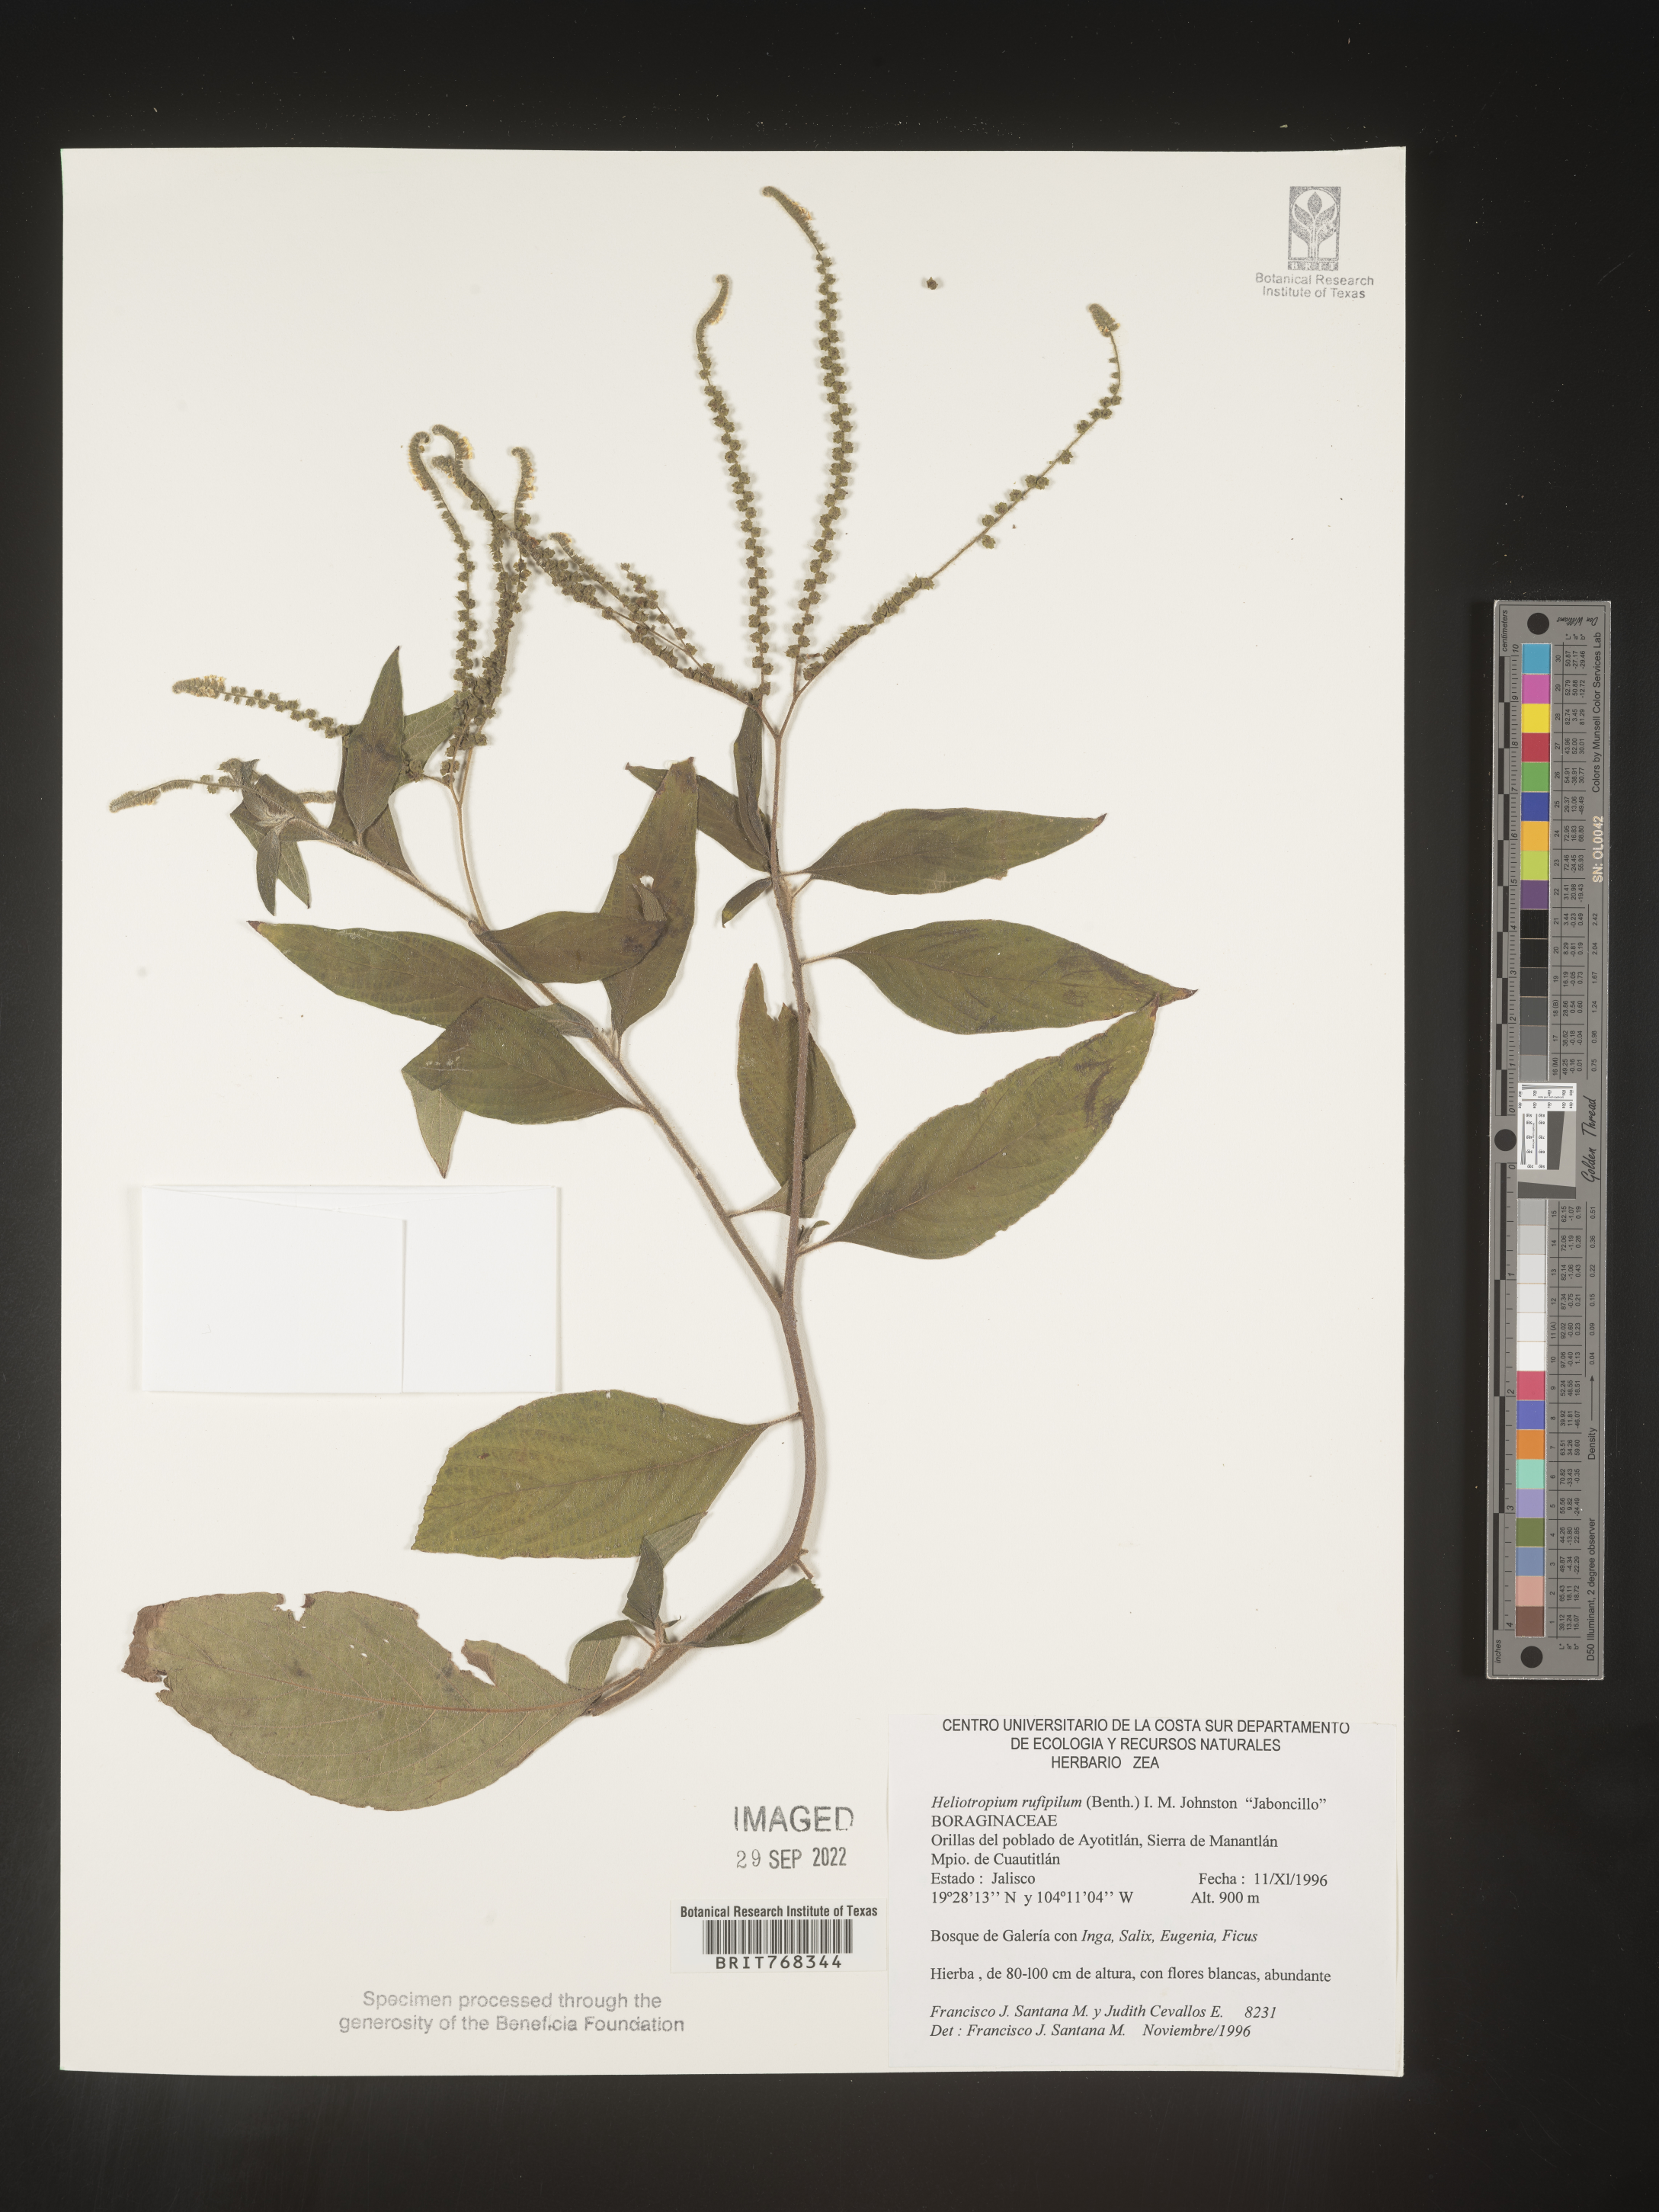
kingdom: Plantae
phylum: Tracheophyta
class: Magnoliopsida
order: Boraginales
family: Heliotropiaceae
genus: Heliotropium
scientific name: Heliotropium
